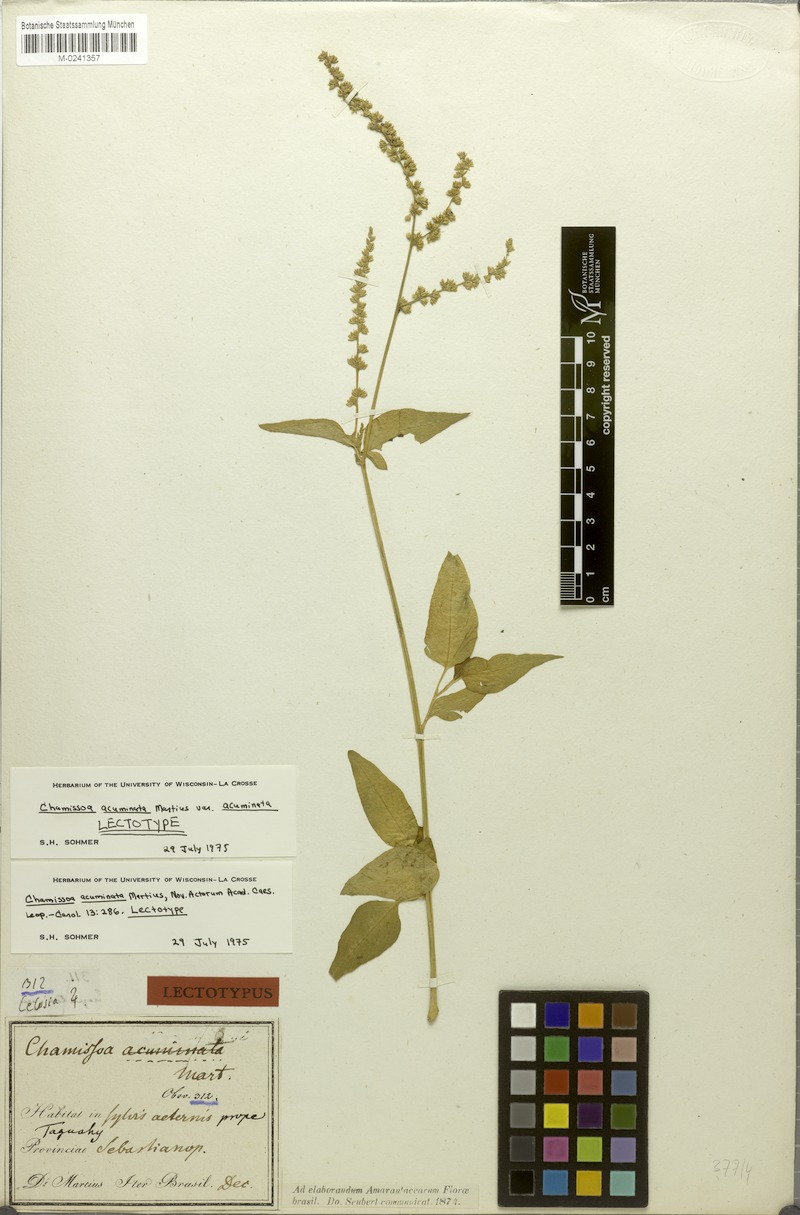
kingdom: Plantae
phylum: Tracheophyta
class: Magnoliopsida
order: Caryophyllales
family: Amaranthaceae
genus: Chamissoa
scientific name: Chamissoa acuminata
